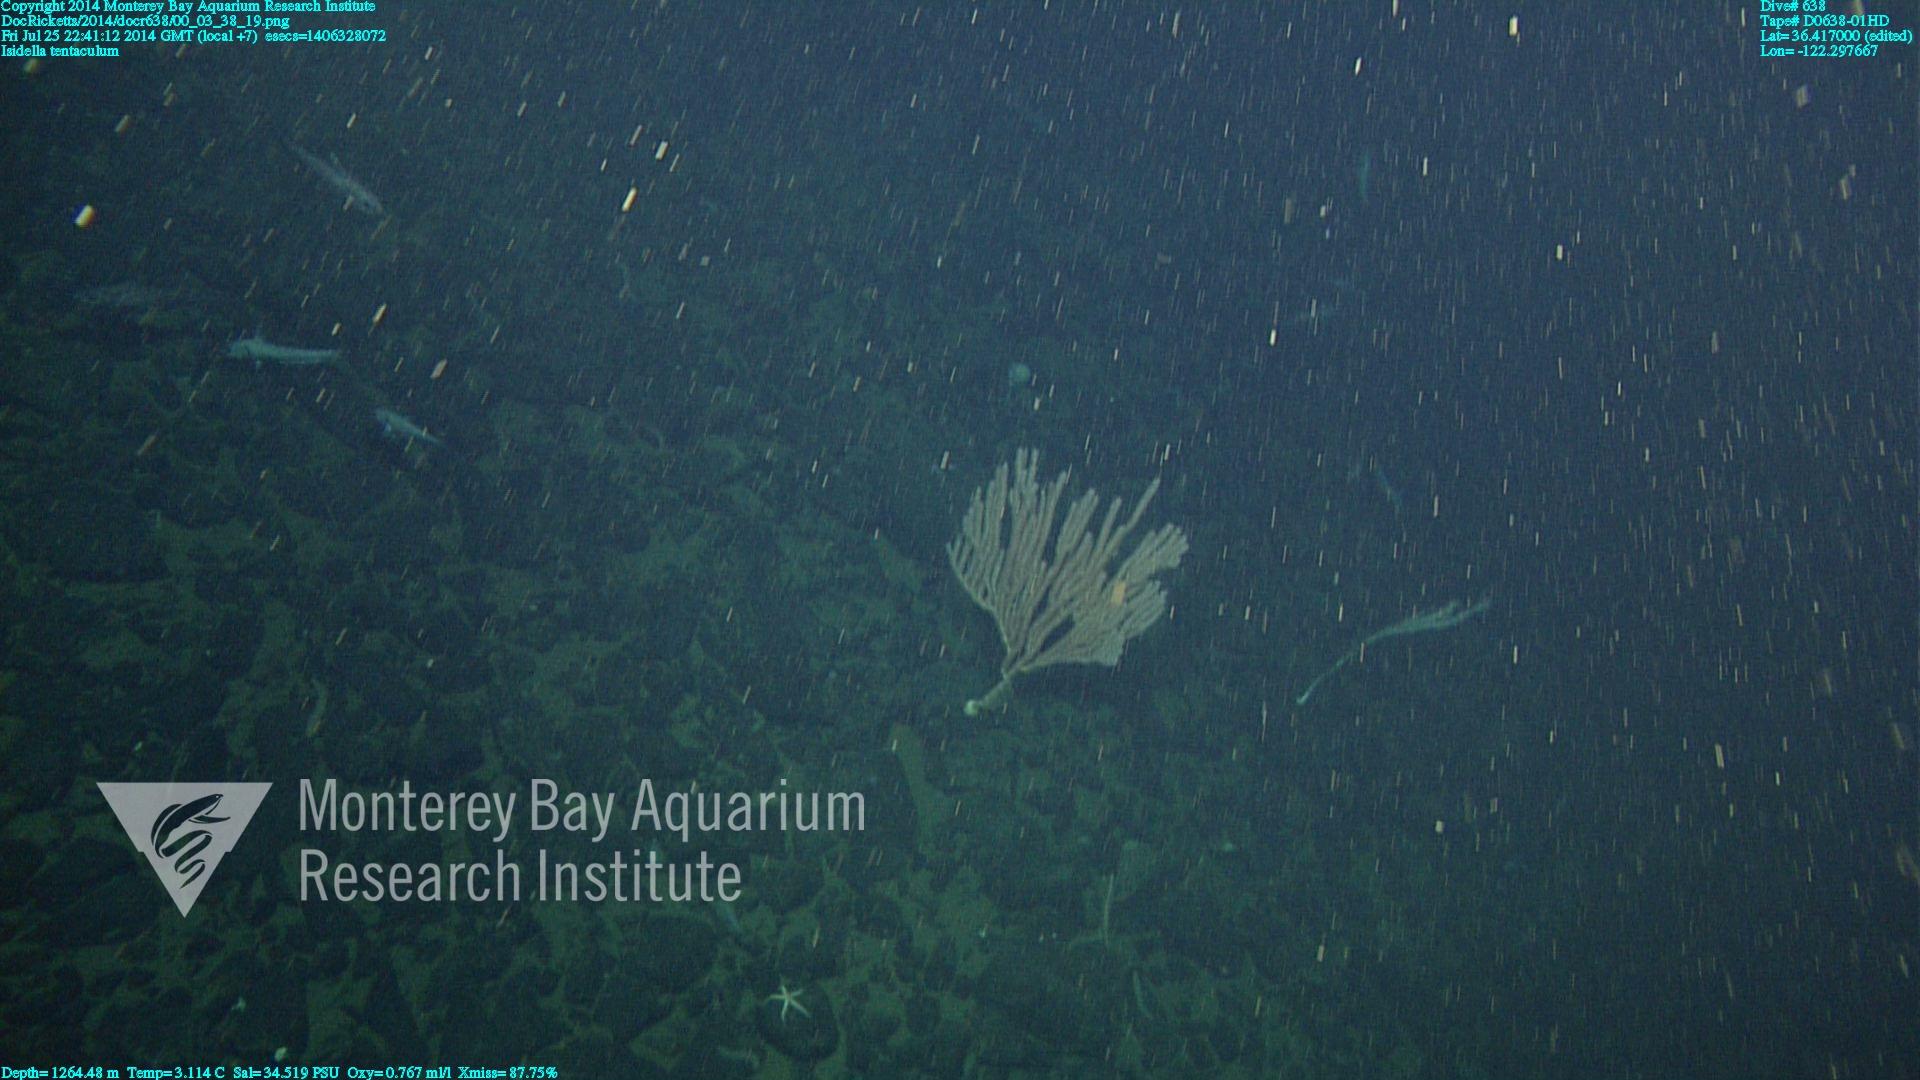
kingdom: Animalia
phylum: Cnidaria
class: Anthozoa
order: Scleralcyonacea
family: Keratoisididae
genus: Isidella
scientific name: Isidella tentaculum
